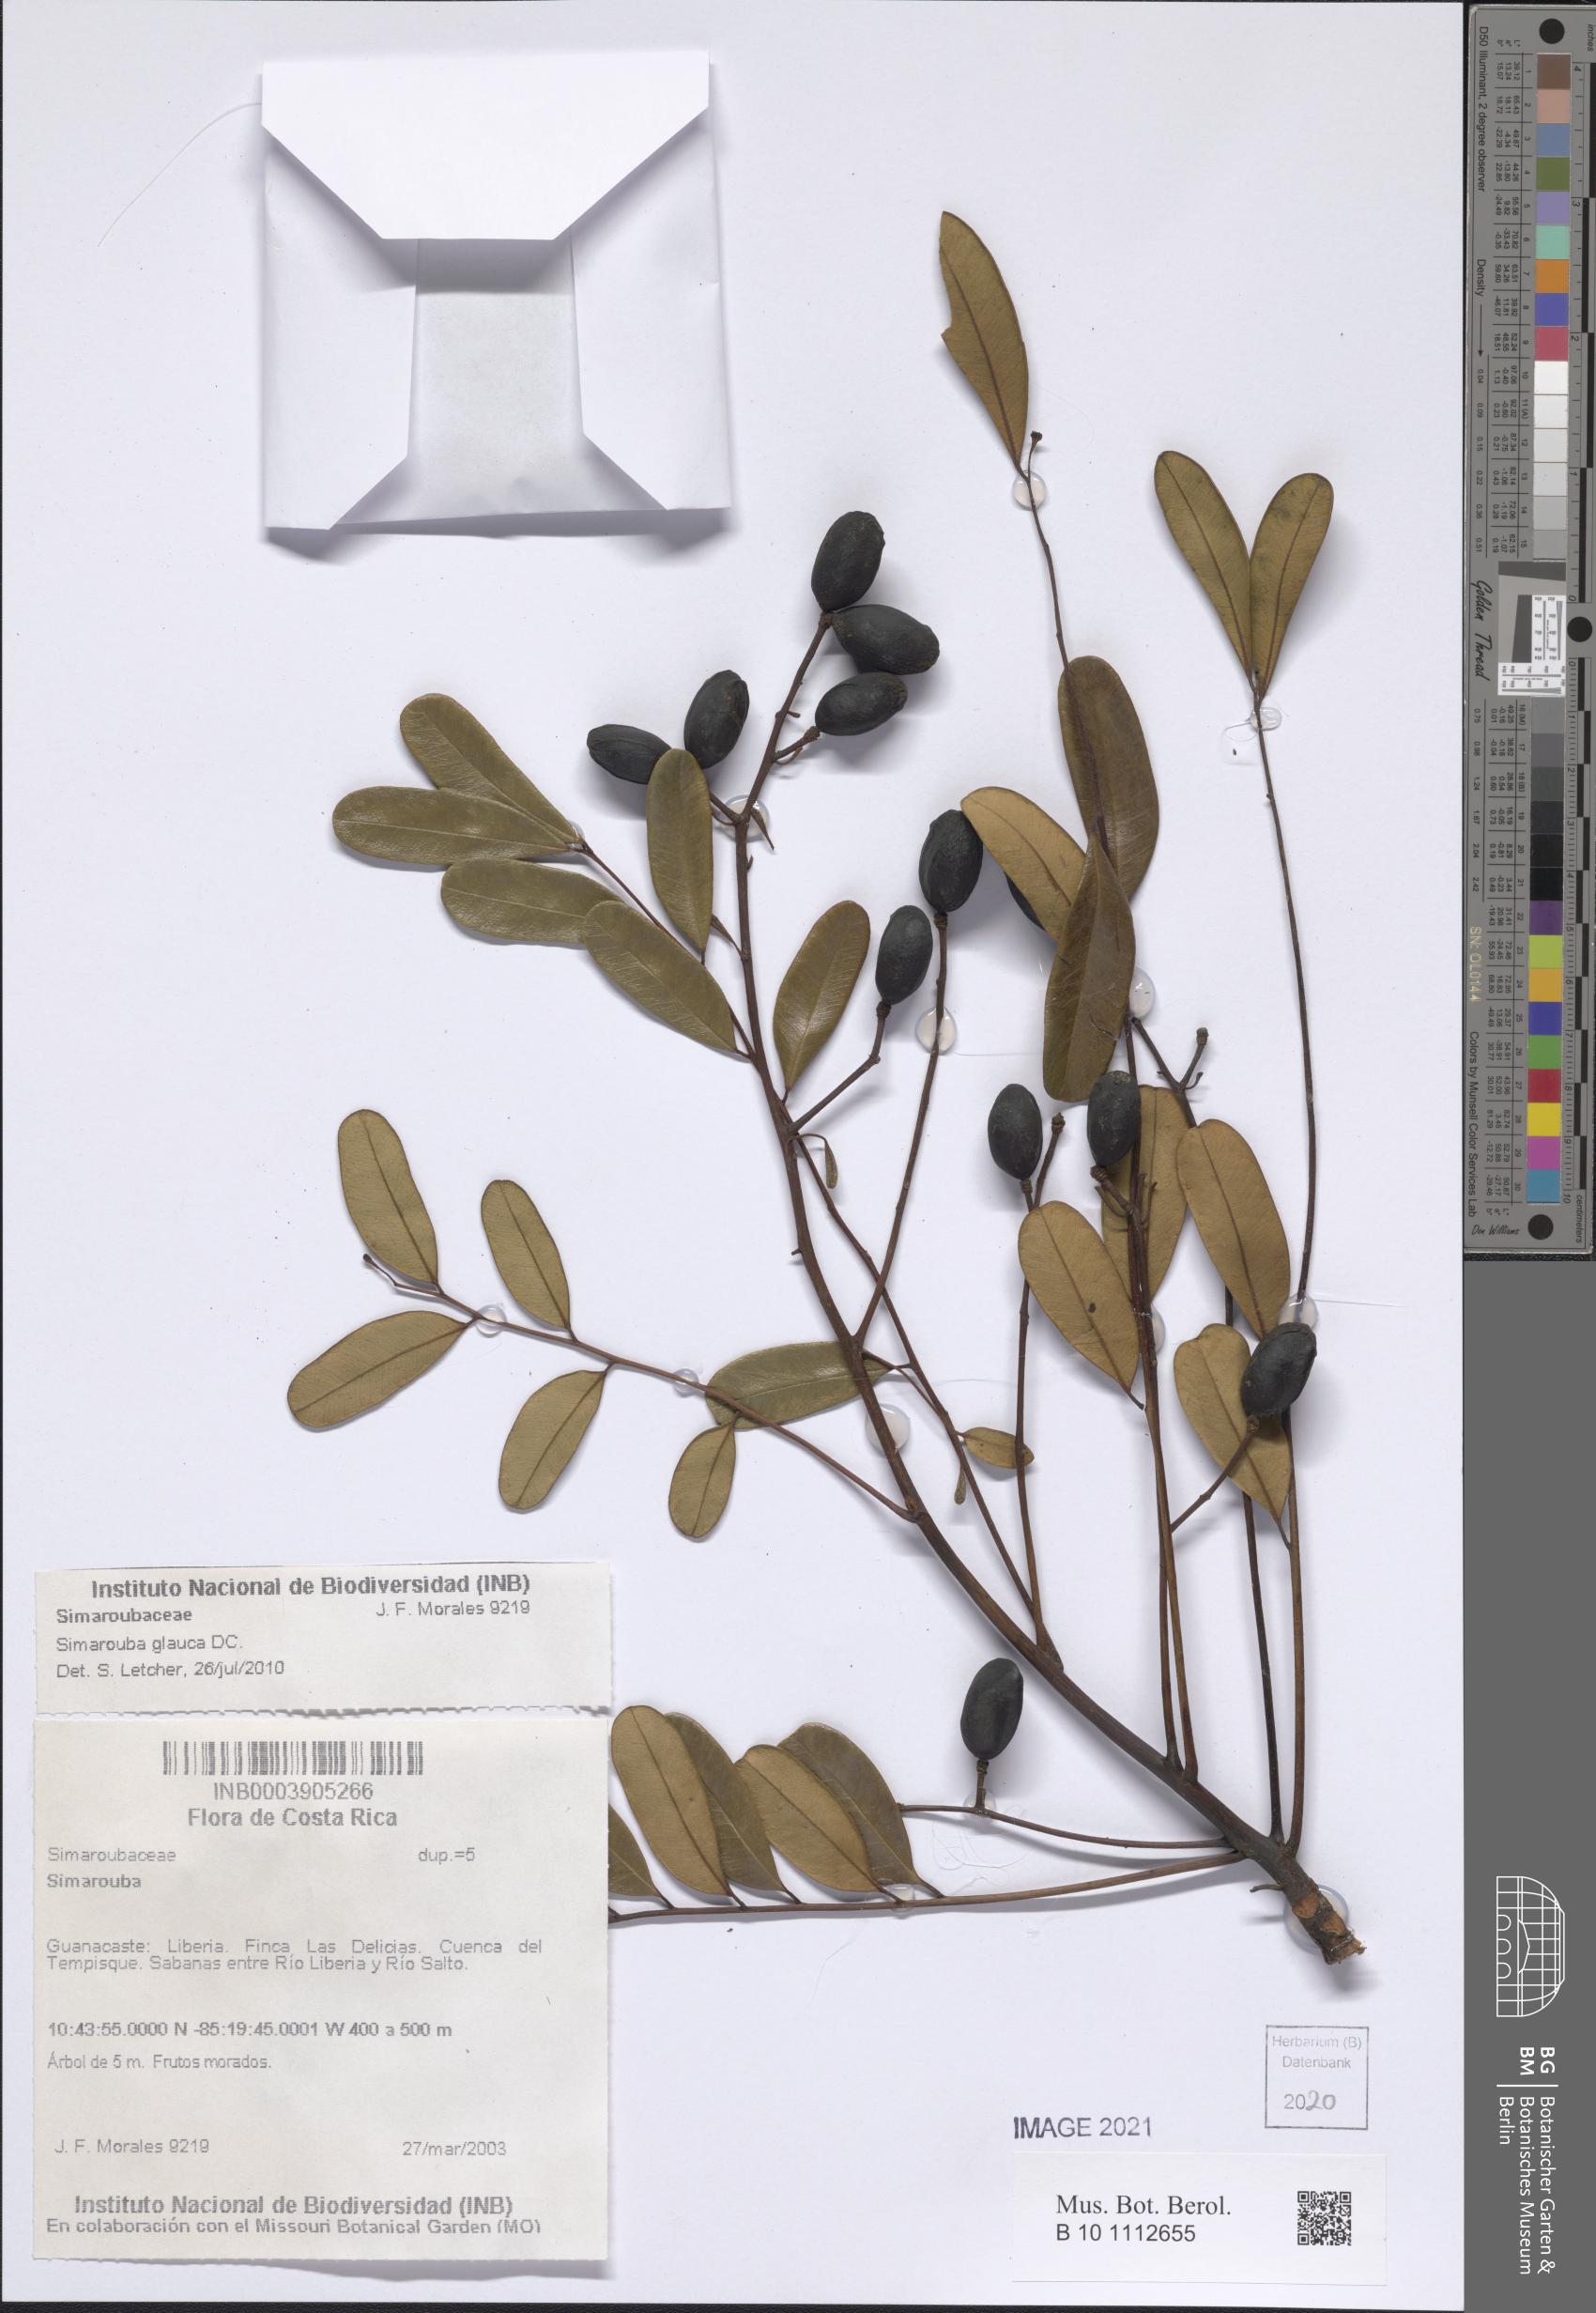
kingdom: Plantae
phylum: Tracheophyta
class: Magnoliopsida
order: Sapindales
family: Simaroubaceae
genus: Simarouba
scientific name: Simarouba glauca
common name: Dysentery-bark
